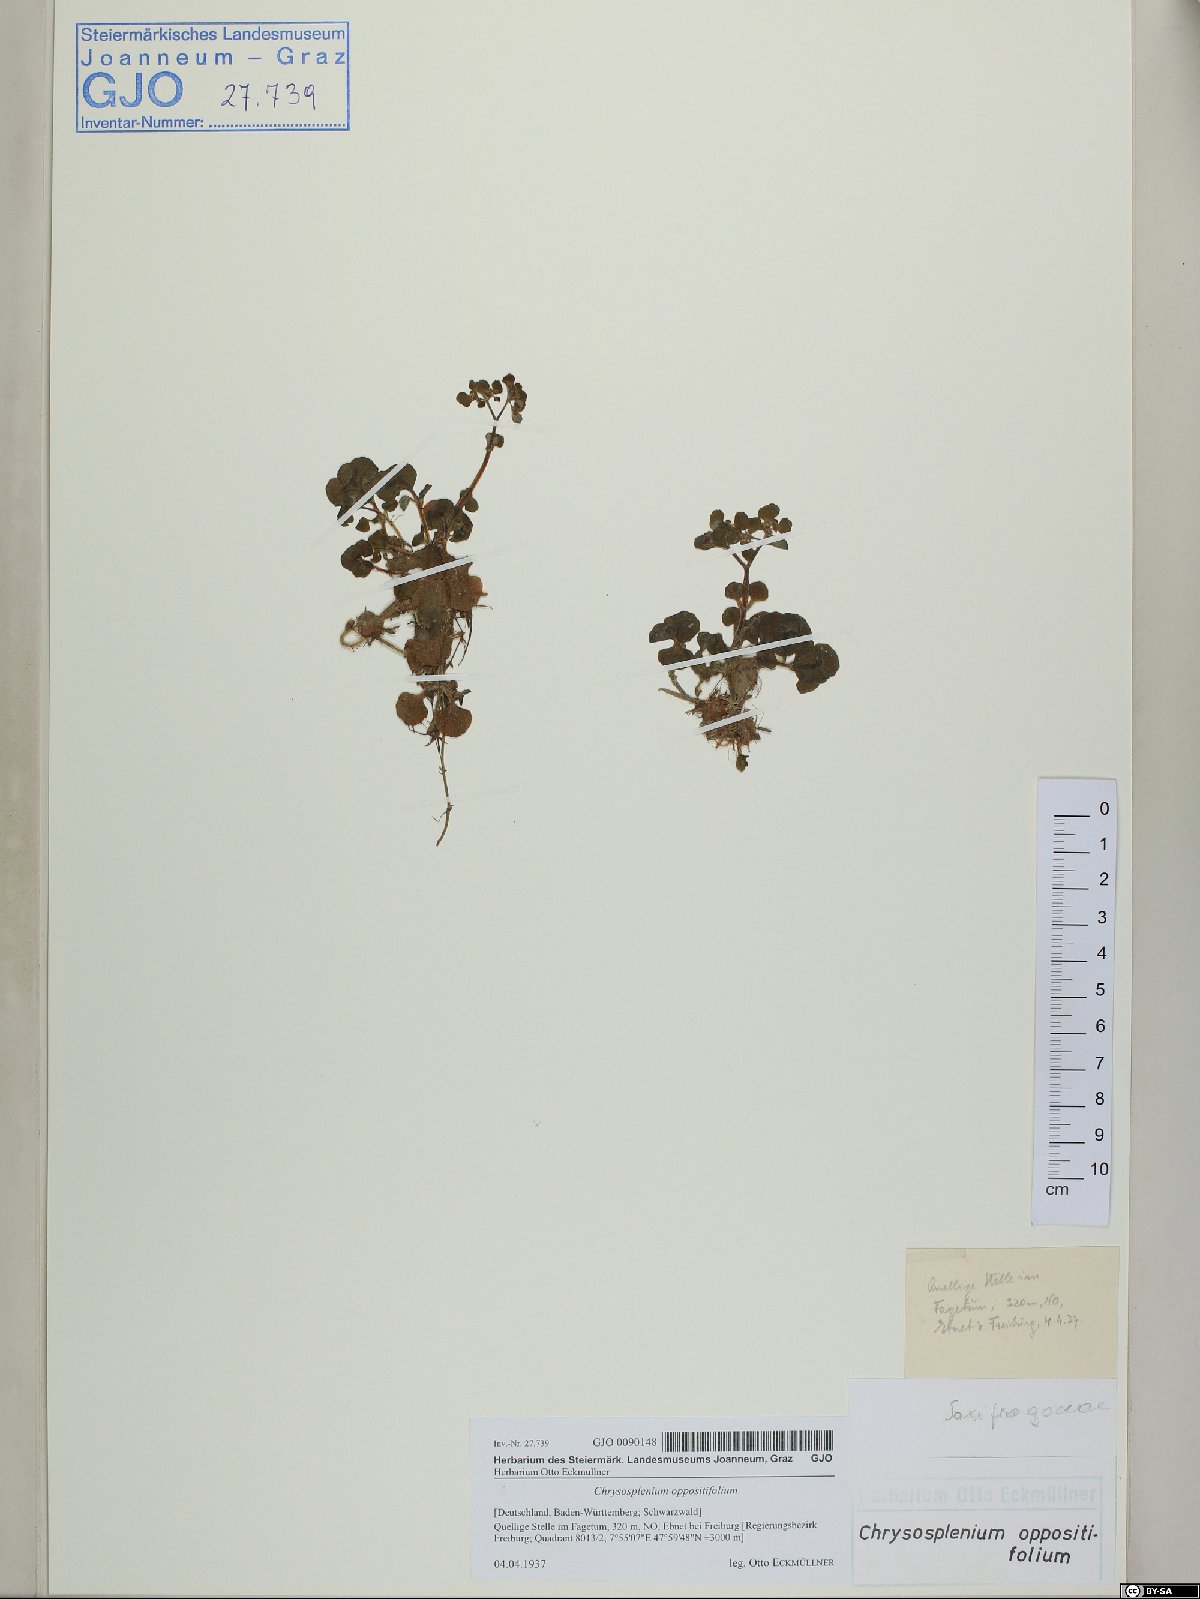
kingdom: Plantae
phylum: Tracheophyta
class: Magnoliopsida
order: Saxifragales
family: Saxifragaceae
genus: Chrysosplenium
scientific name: Chrysosplenium oppositifolium
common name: Opposite-leaved golden-saxifrage
